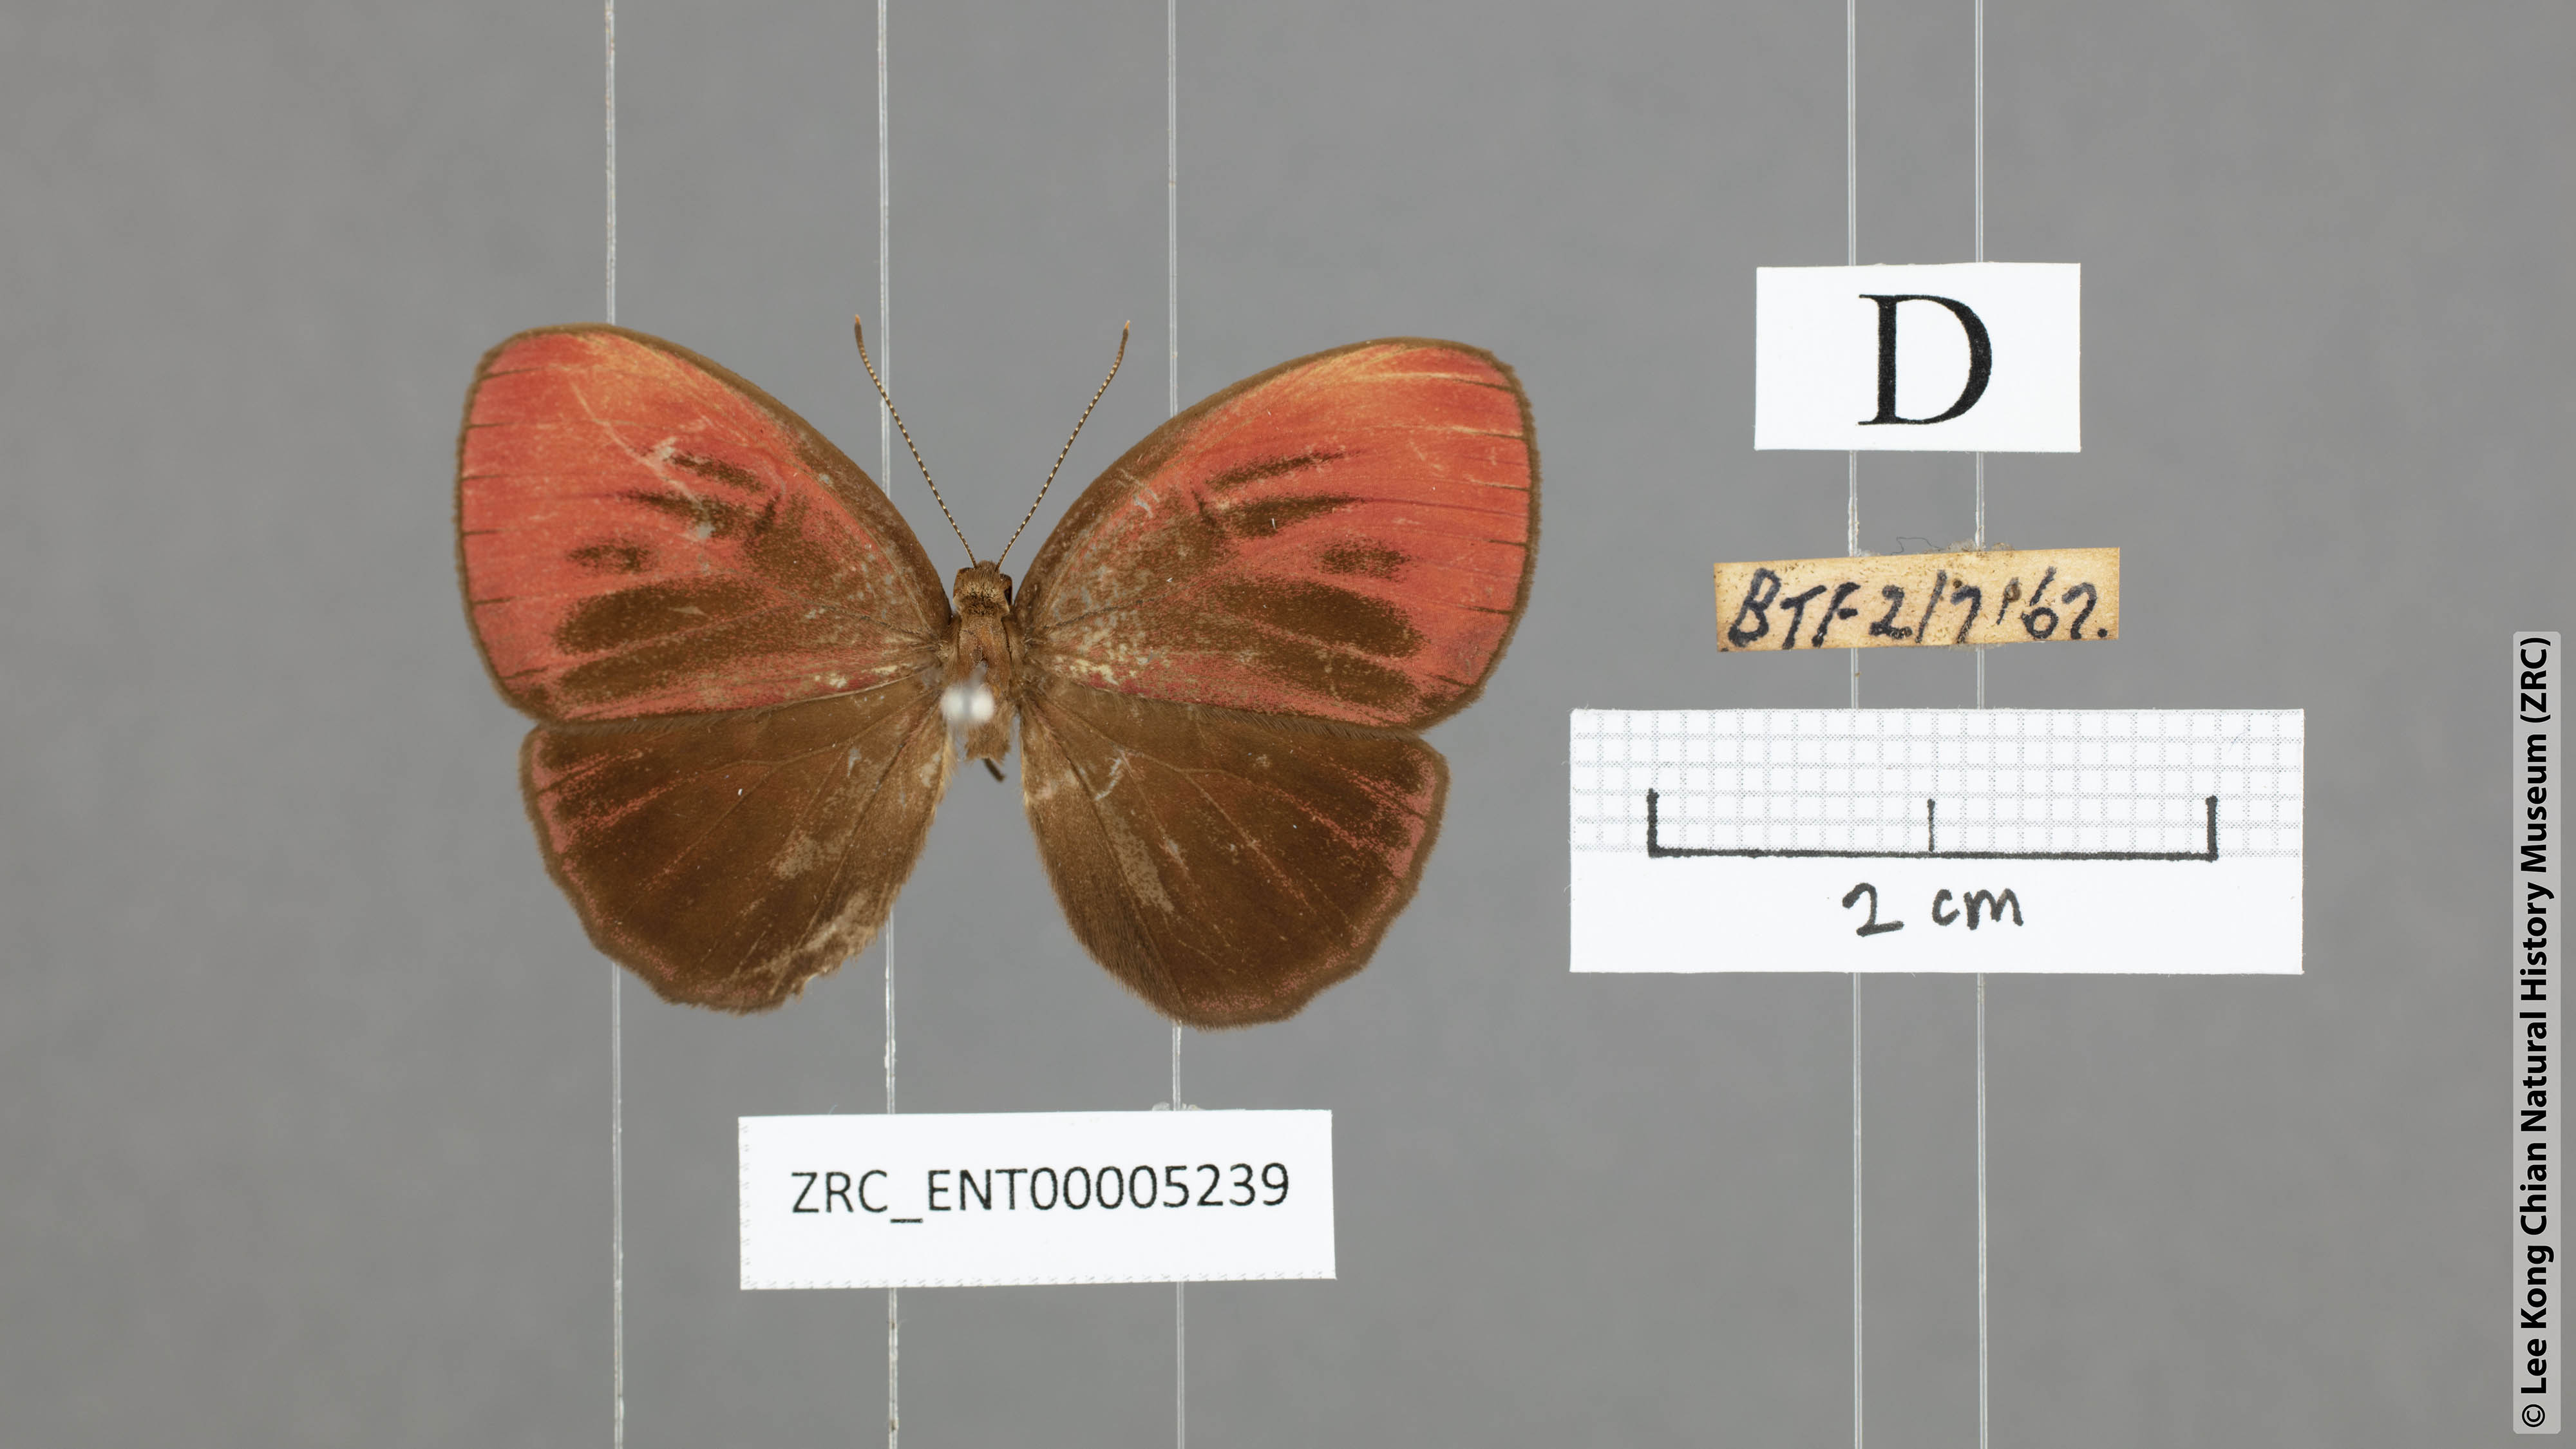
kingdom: Animalia
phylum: Arthropoda
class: Insecta
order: Lepidoptera
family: Riodinidae
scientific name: Riodinidae
